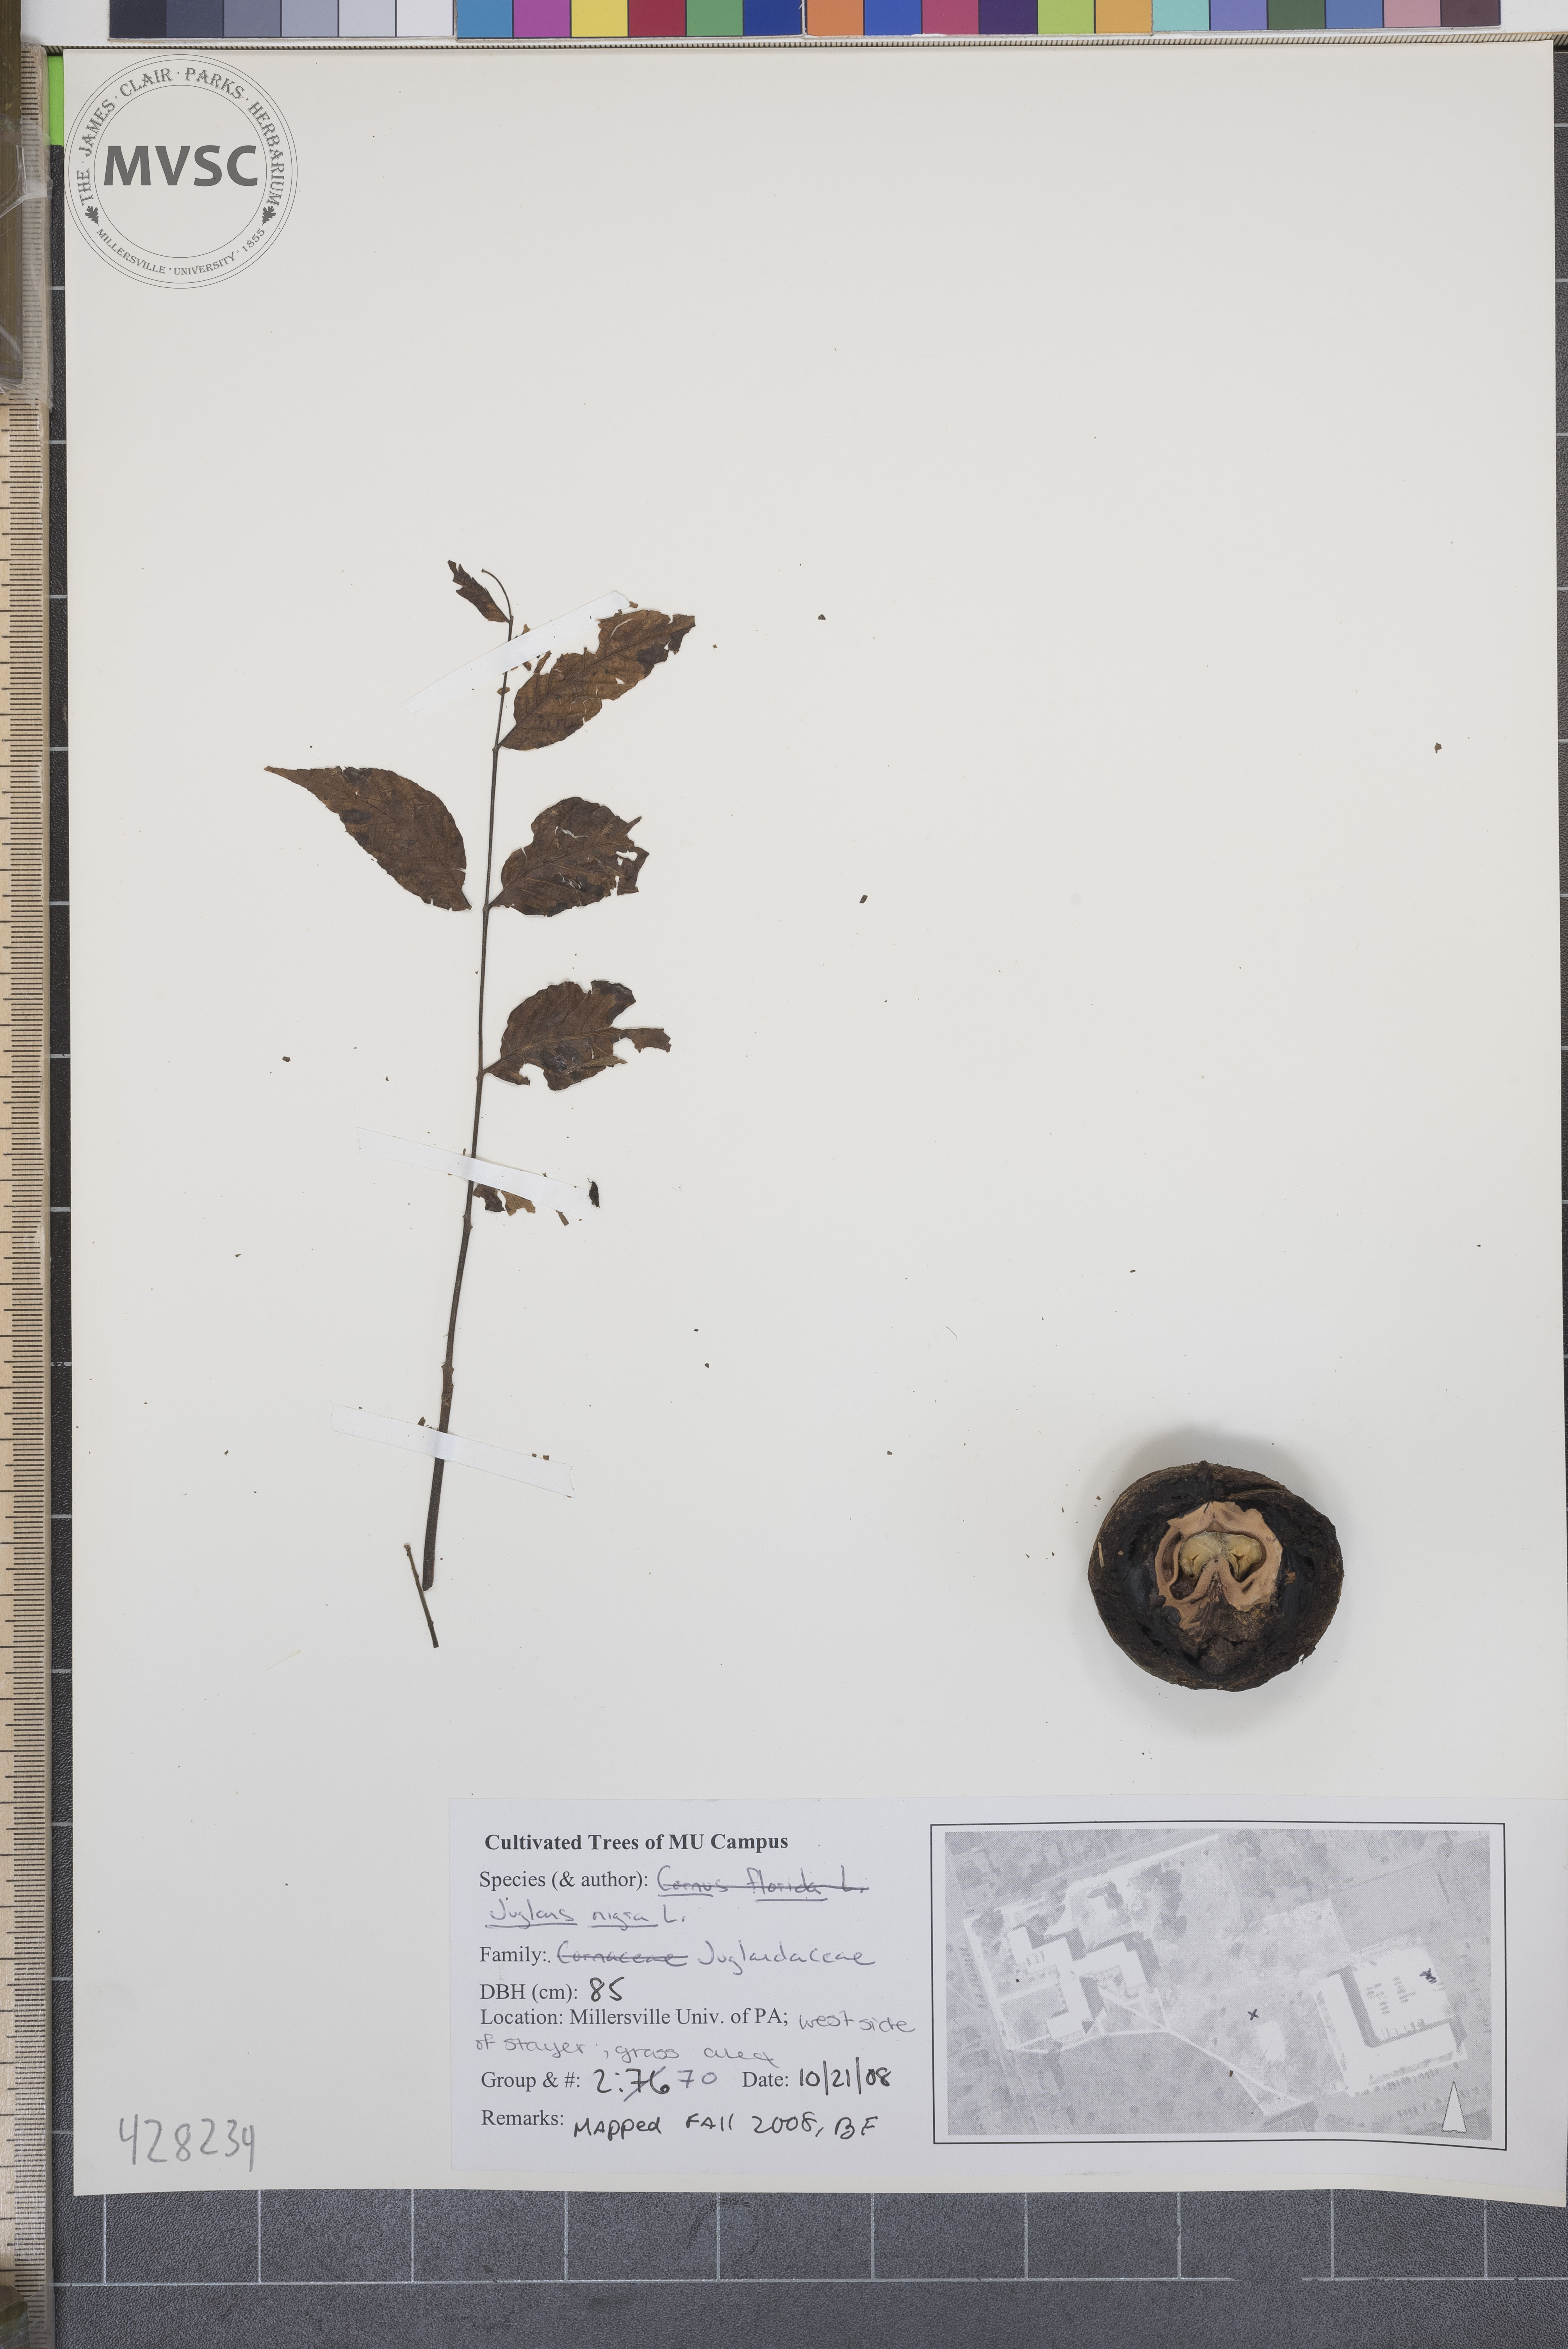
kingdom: Plantae
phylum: Tracheophyta
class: Magnoliopsida
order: Fagales
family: Juglandaceae
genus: Juglans
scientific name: Juglans nigra
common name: Black walnut
